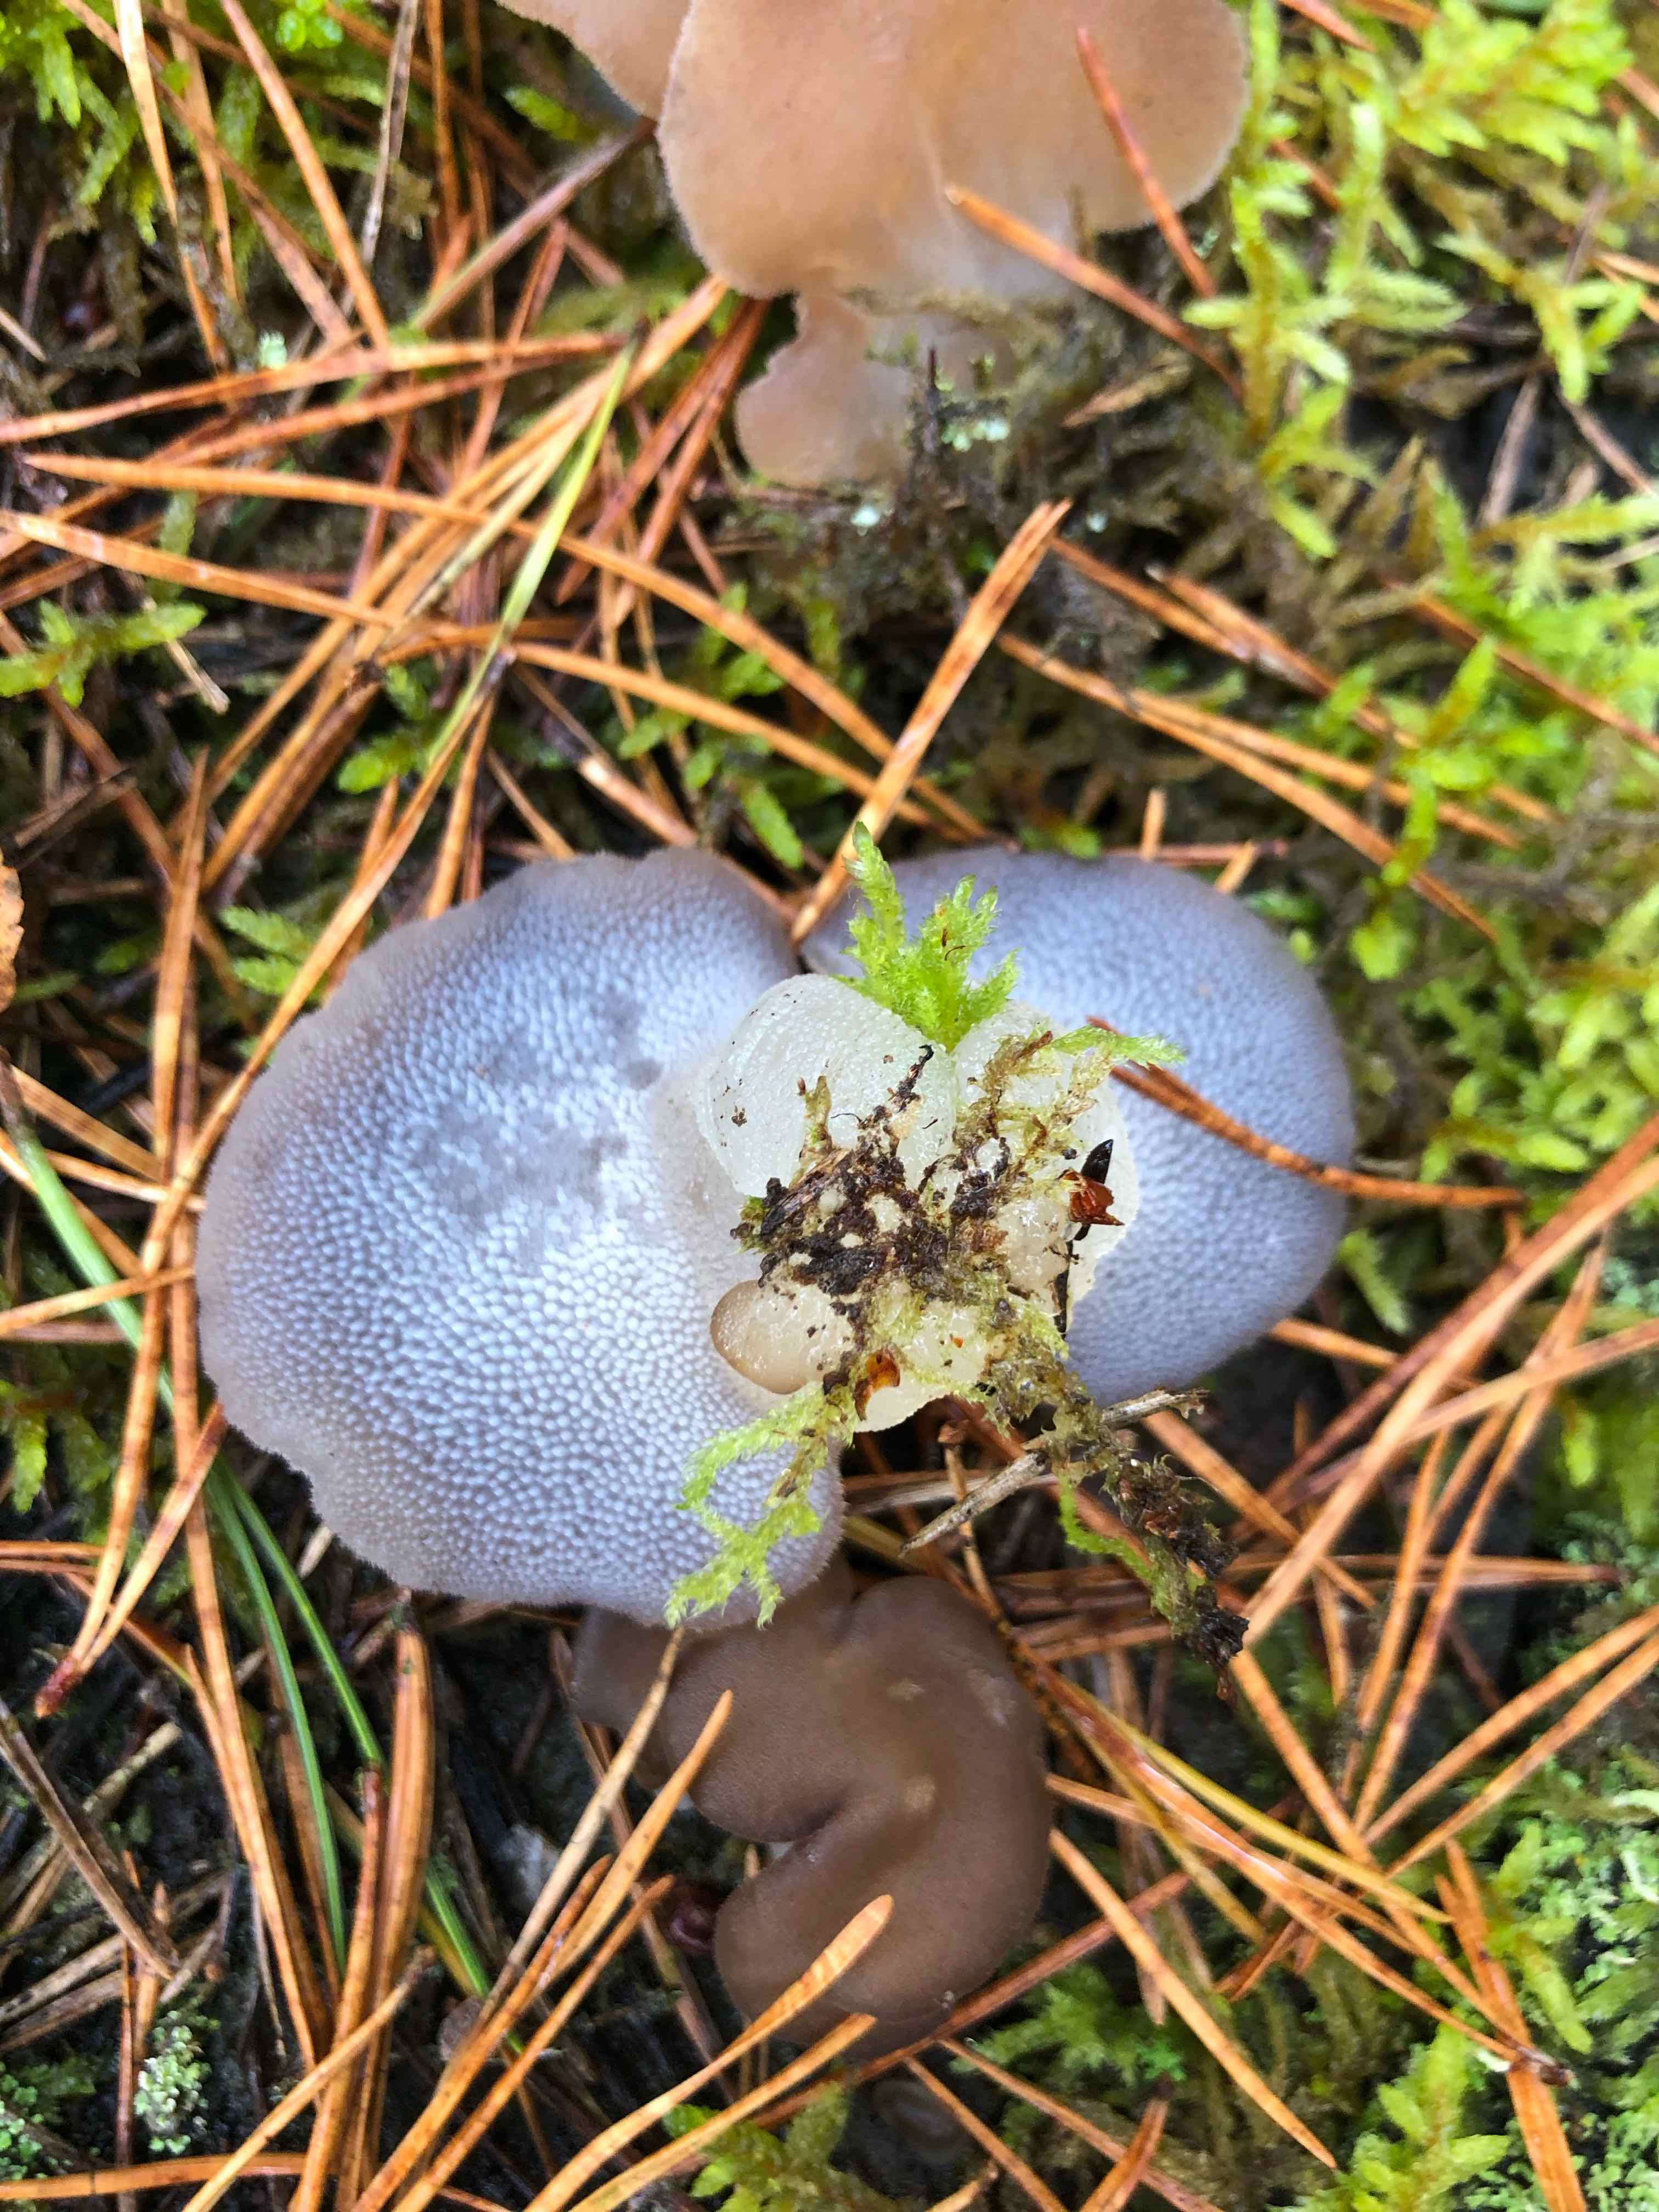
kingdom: Fungi
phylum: Basidiomycota
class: Agaricomycetes
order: Auriculariales
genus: Pseudohydnum
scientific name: Pseudohydnum gelatinosum
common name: bævretand
